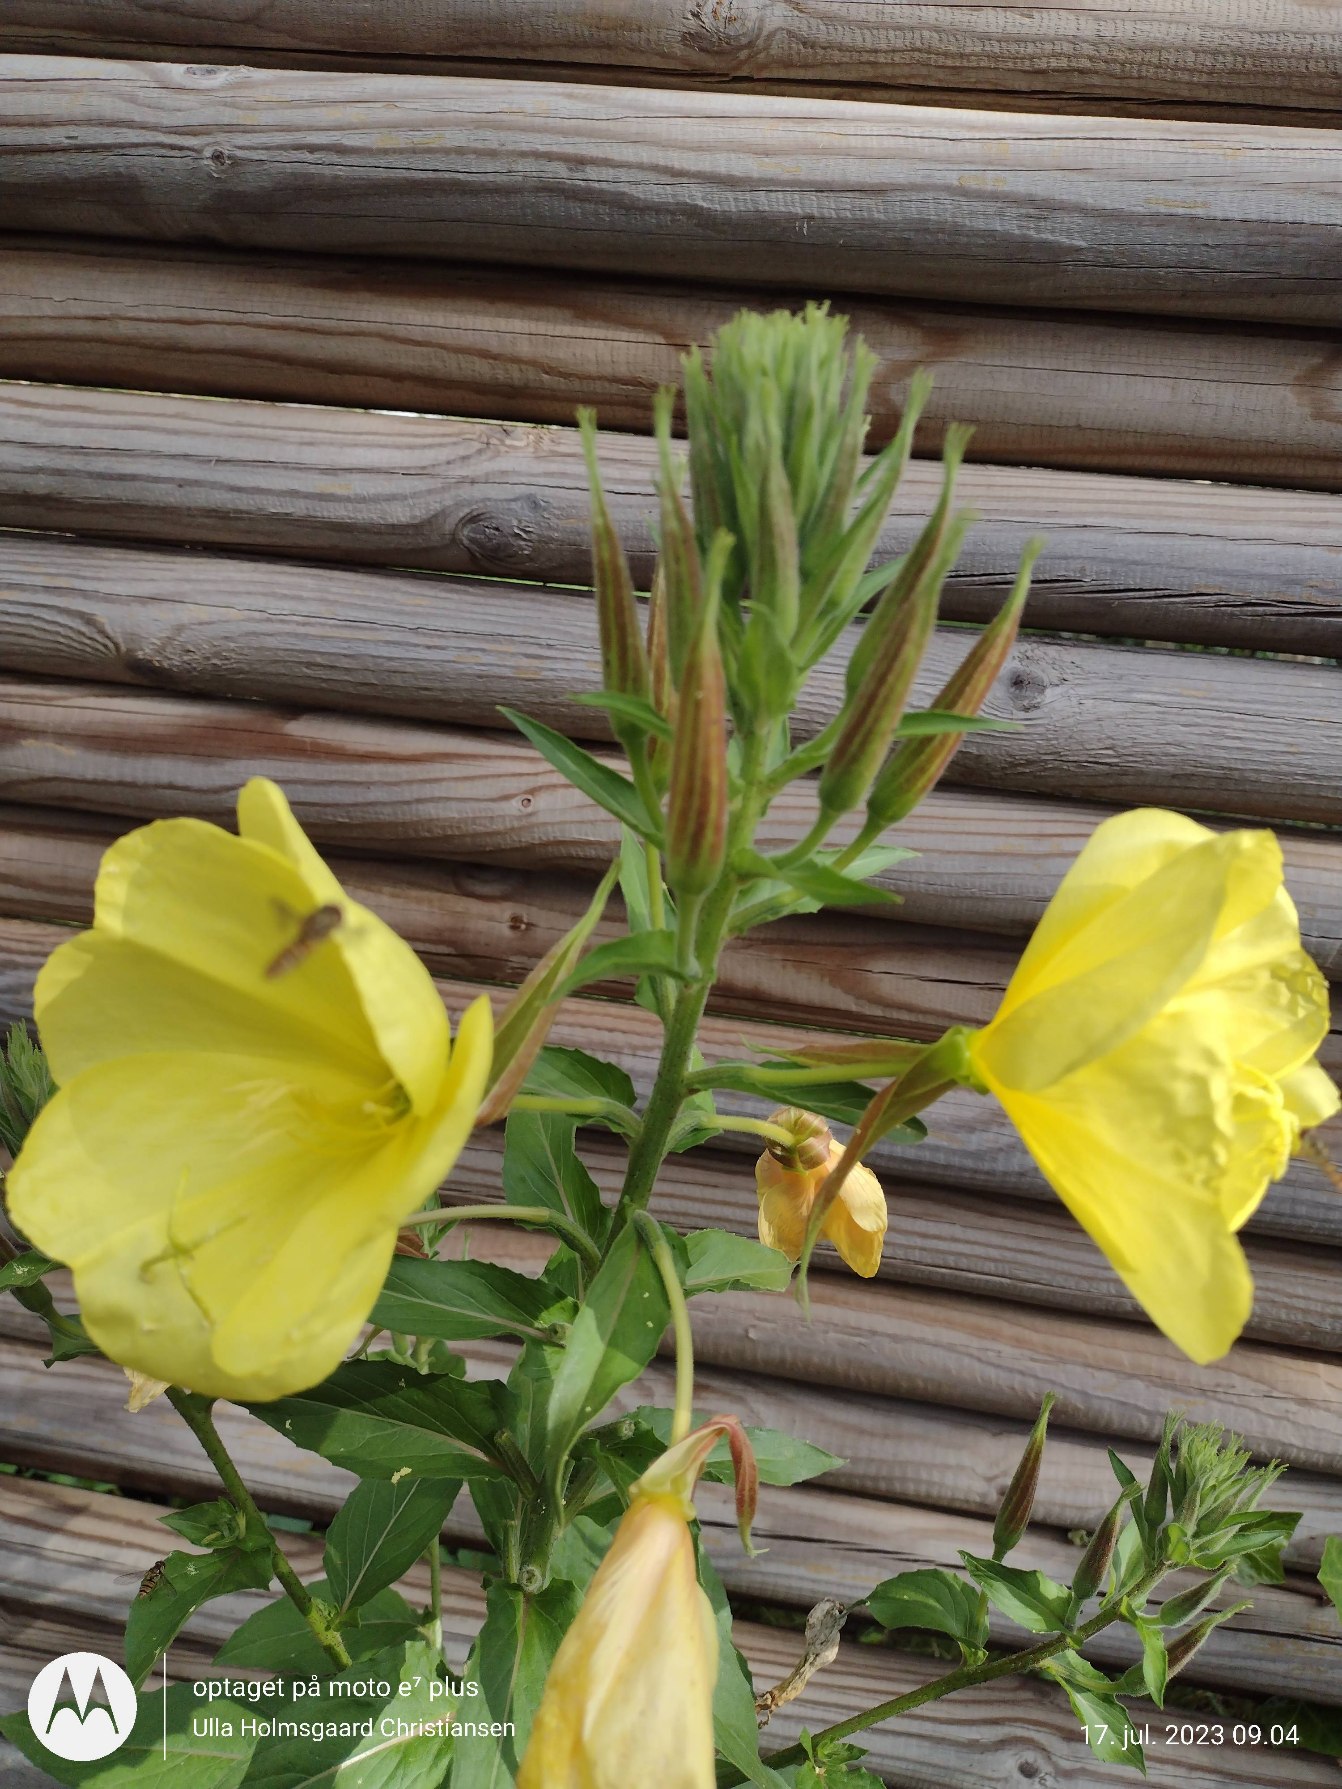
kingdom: Plantae
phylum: Tracheophyta
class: Magnoliopsida
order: Myrtales
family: Onagraceae
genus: Oenothera
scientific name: Oenothera glazioviana
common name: Kæmpe-natlys
